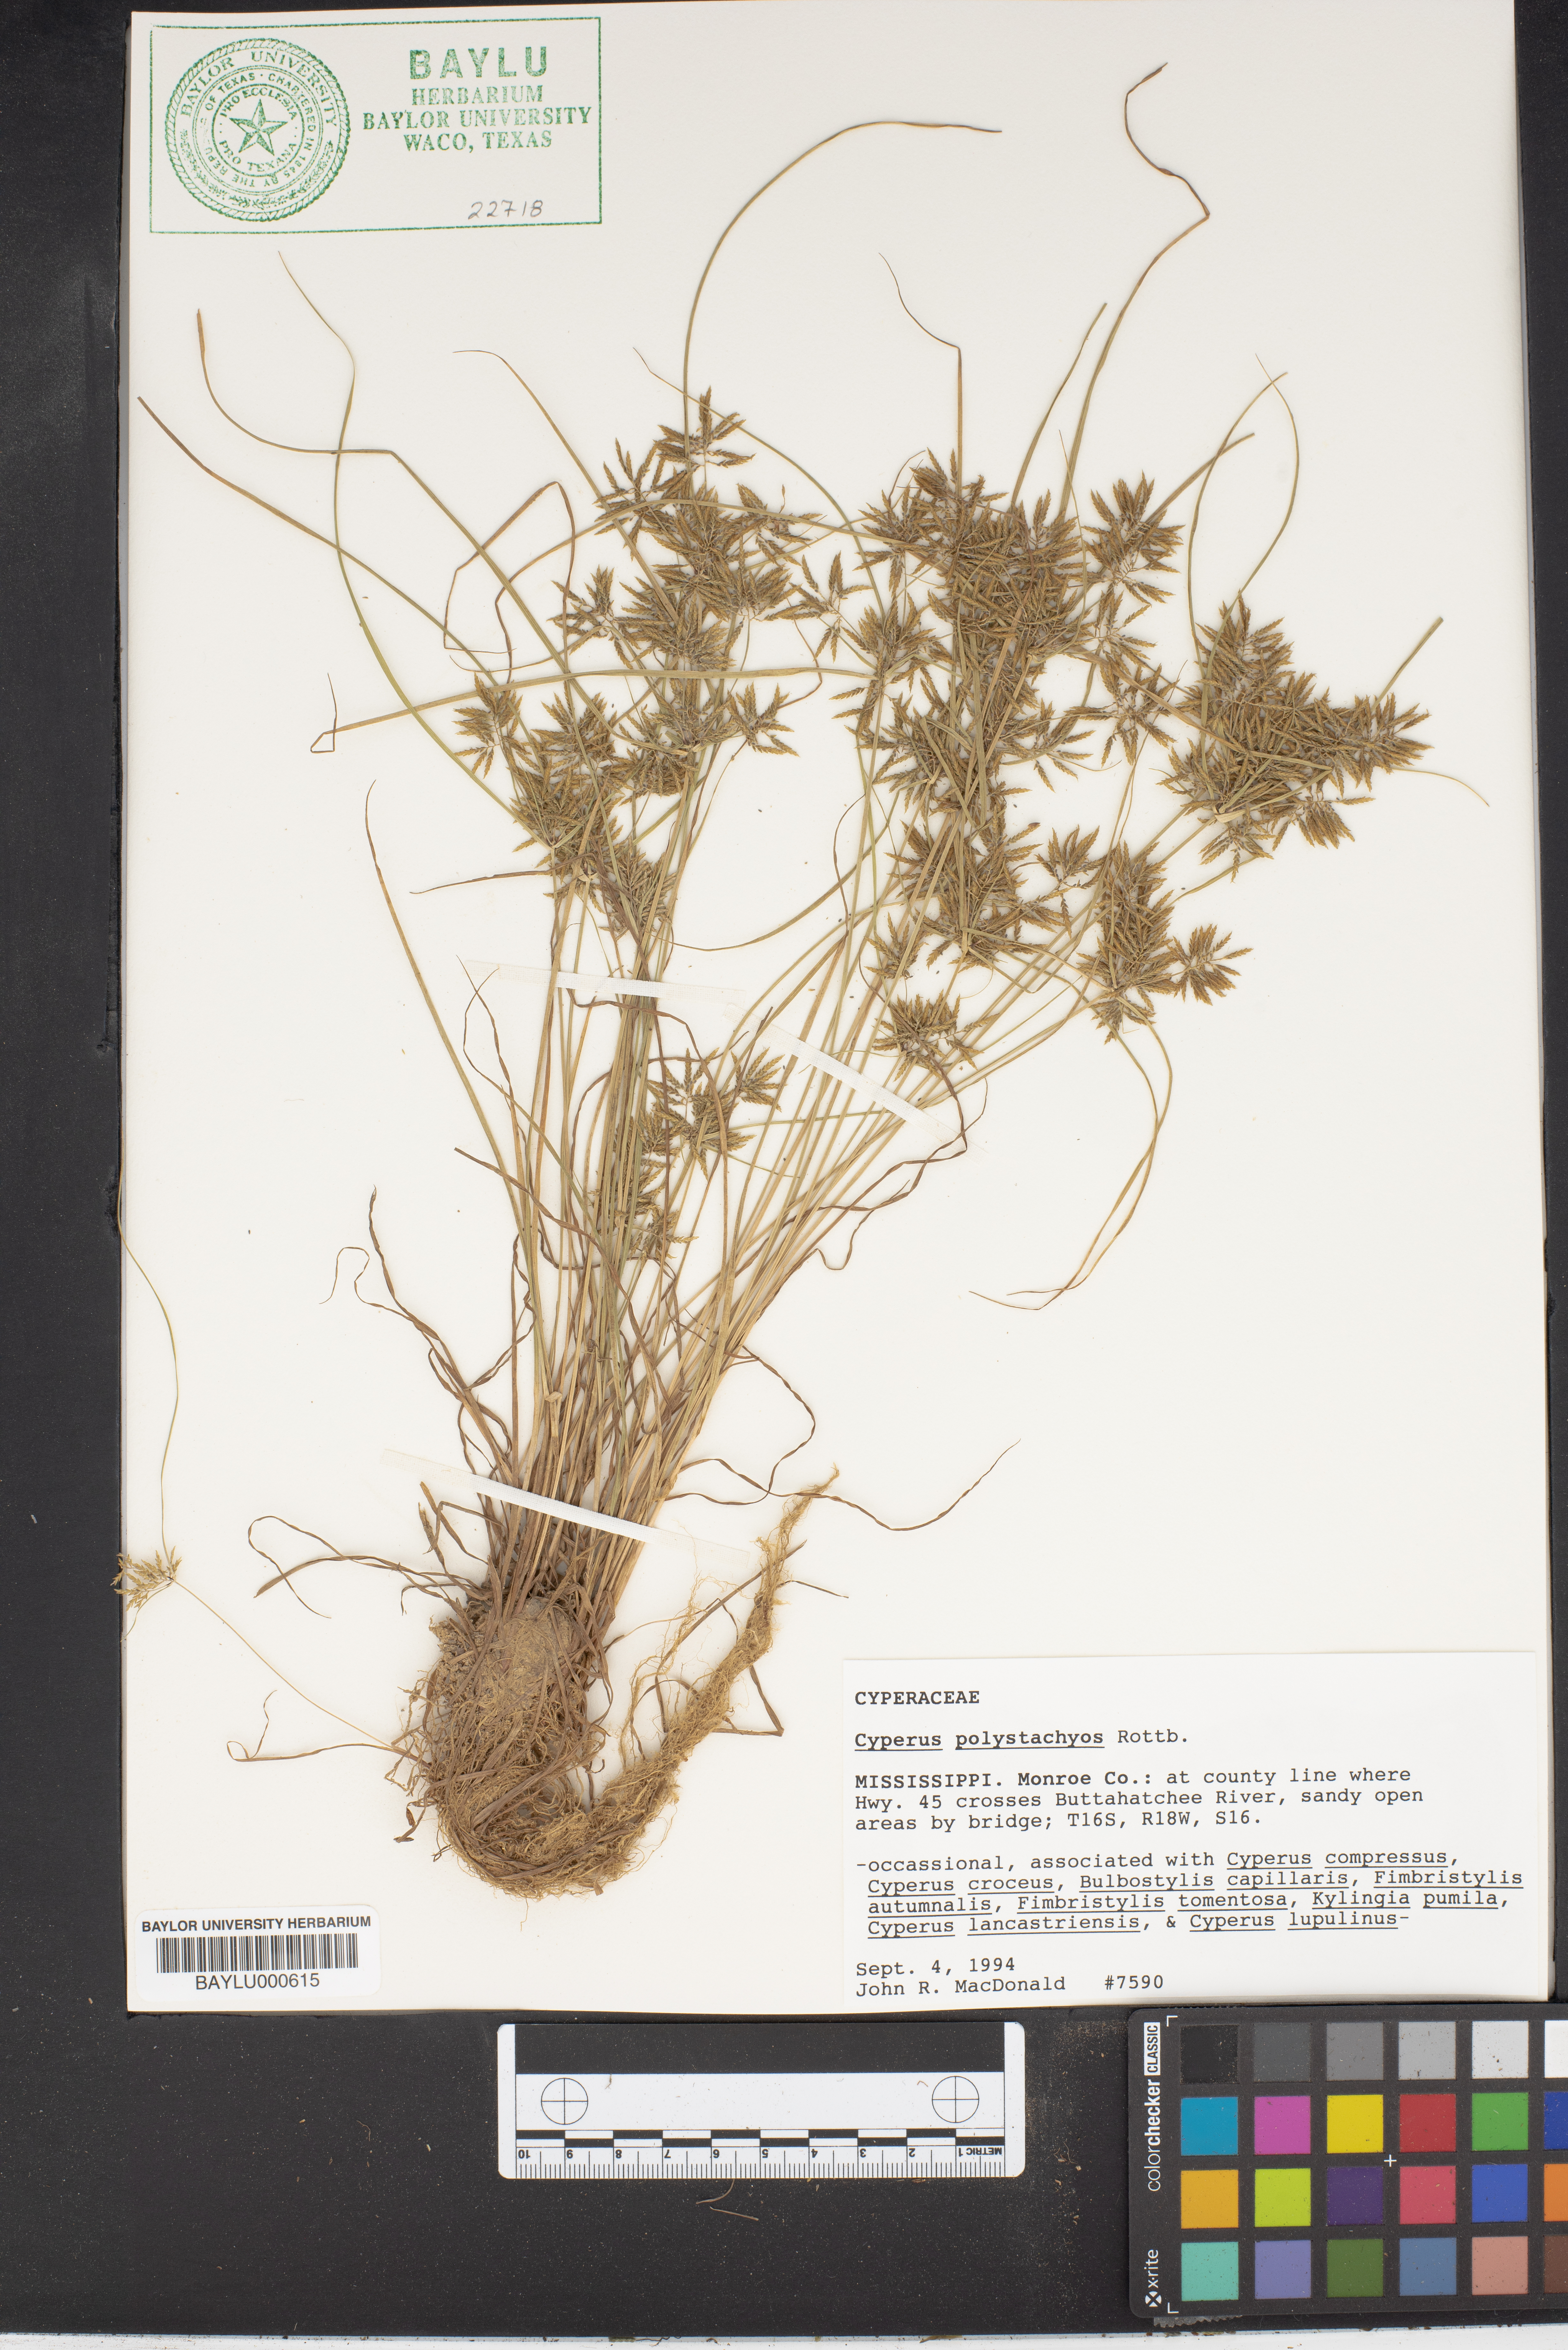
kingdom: Plantae
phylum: Tracheophyta
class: Liliopsida
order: Poales
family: Cyperaceae
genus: Cyperus
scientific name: Cyperus polystachyos
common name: Bunchy flat sedge
